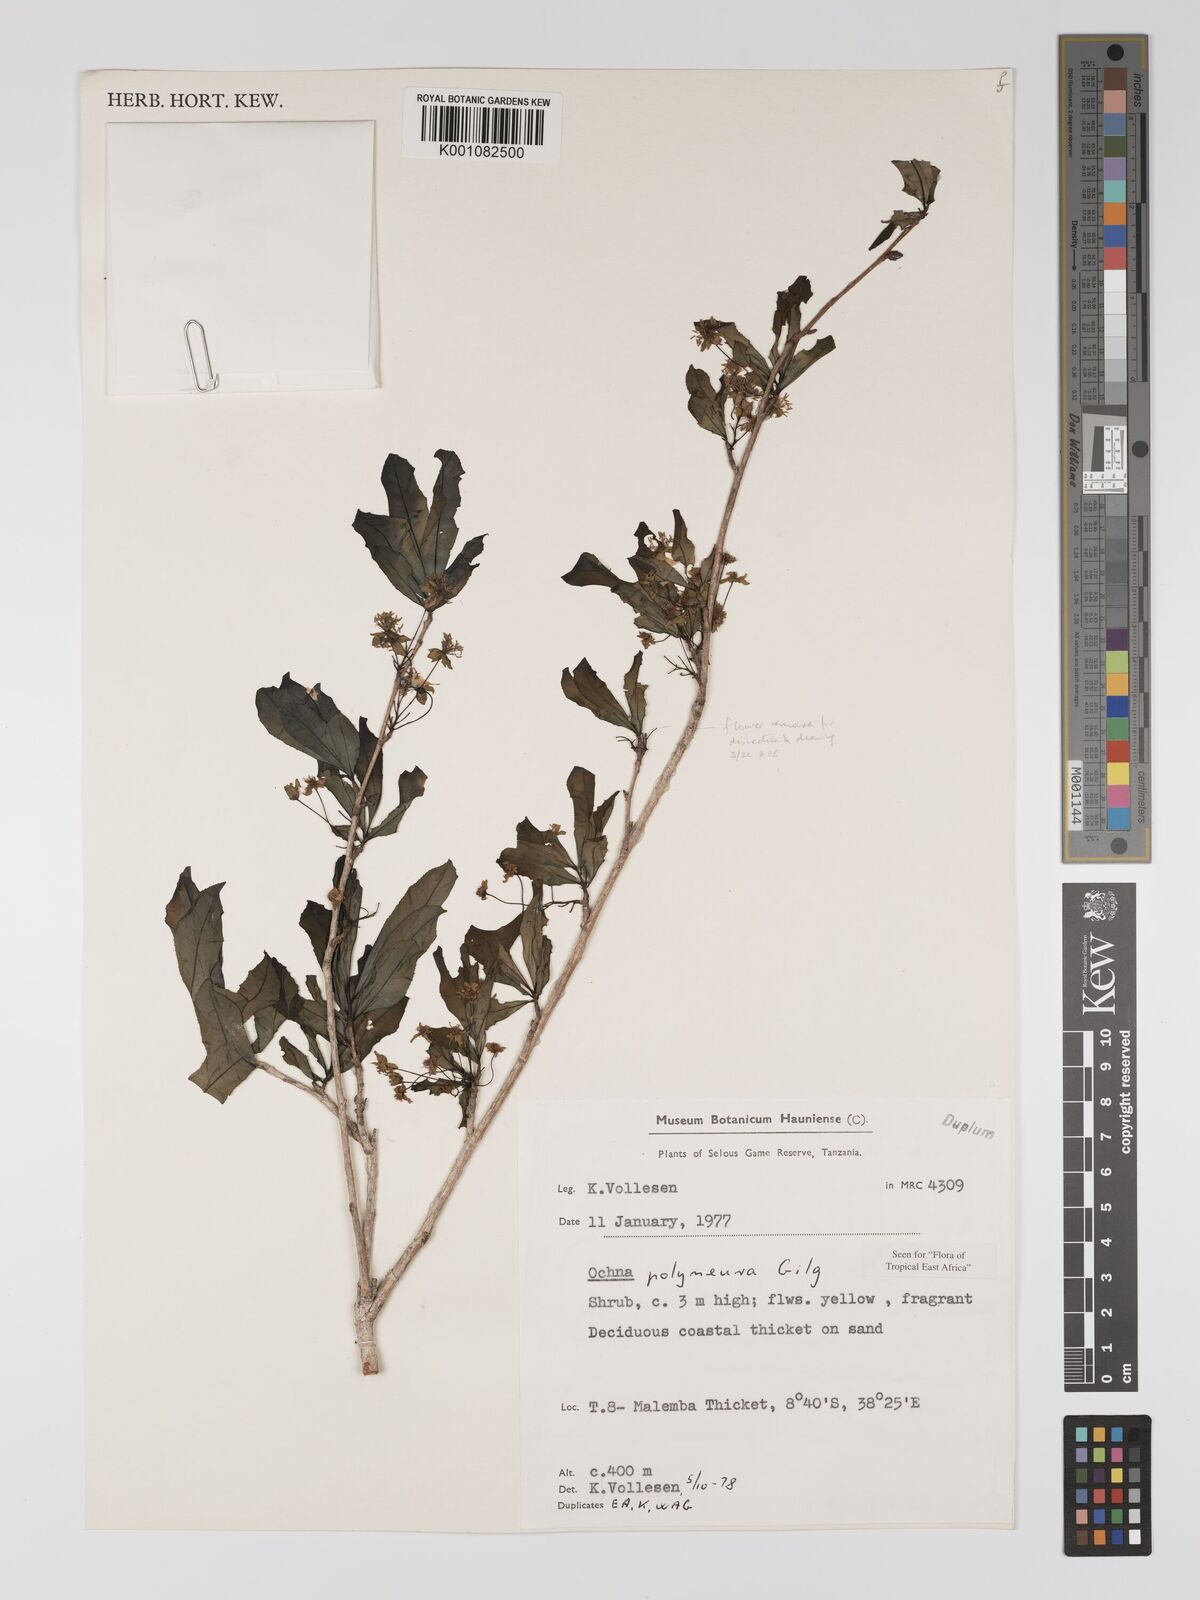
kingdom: Plantae
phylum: Tracheophyta
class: Magnoliopsida
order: Malpighiales
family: Ochnaceae
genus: Ochna
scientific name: Ochna
